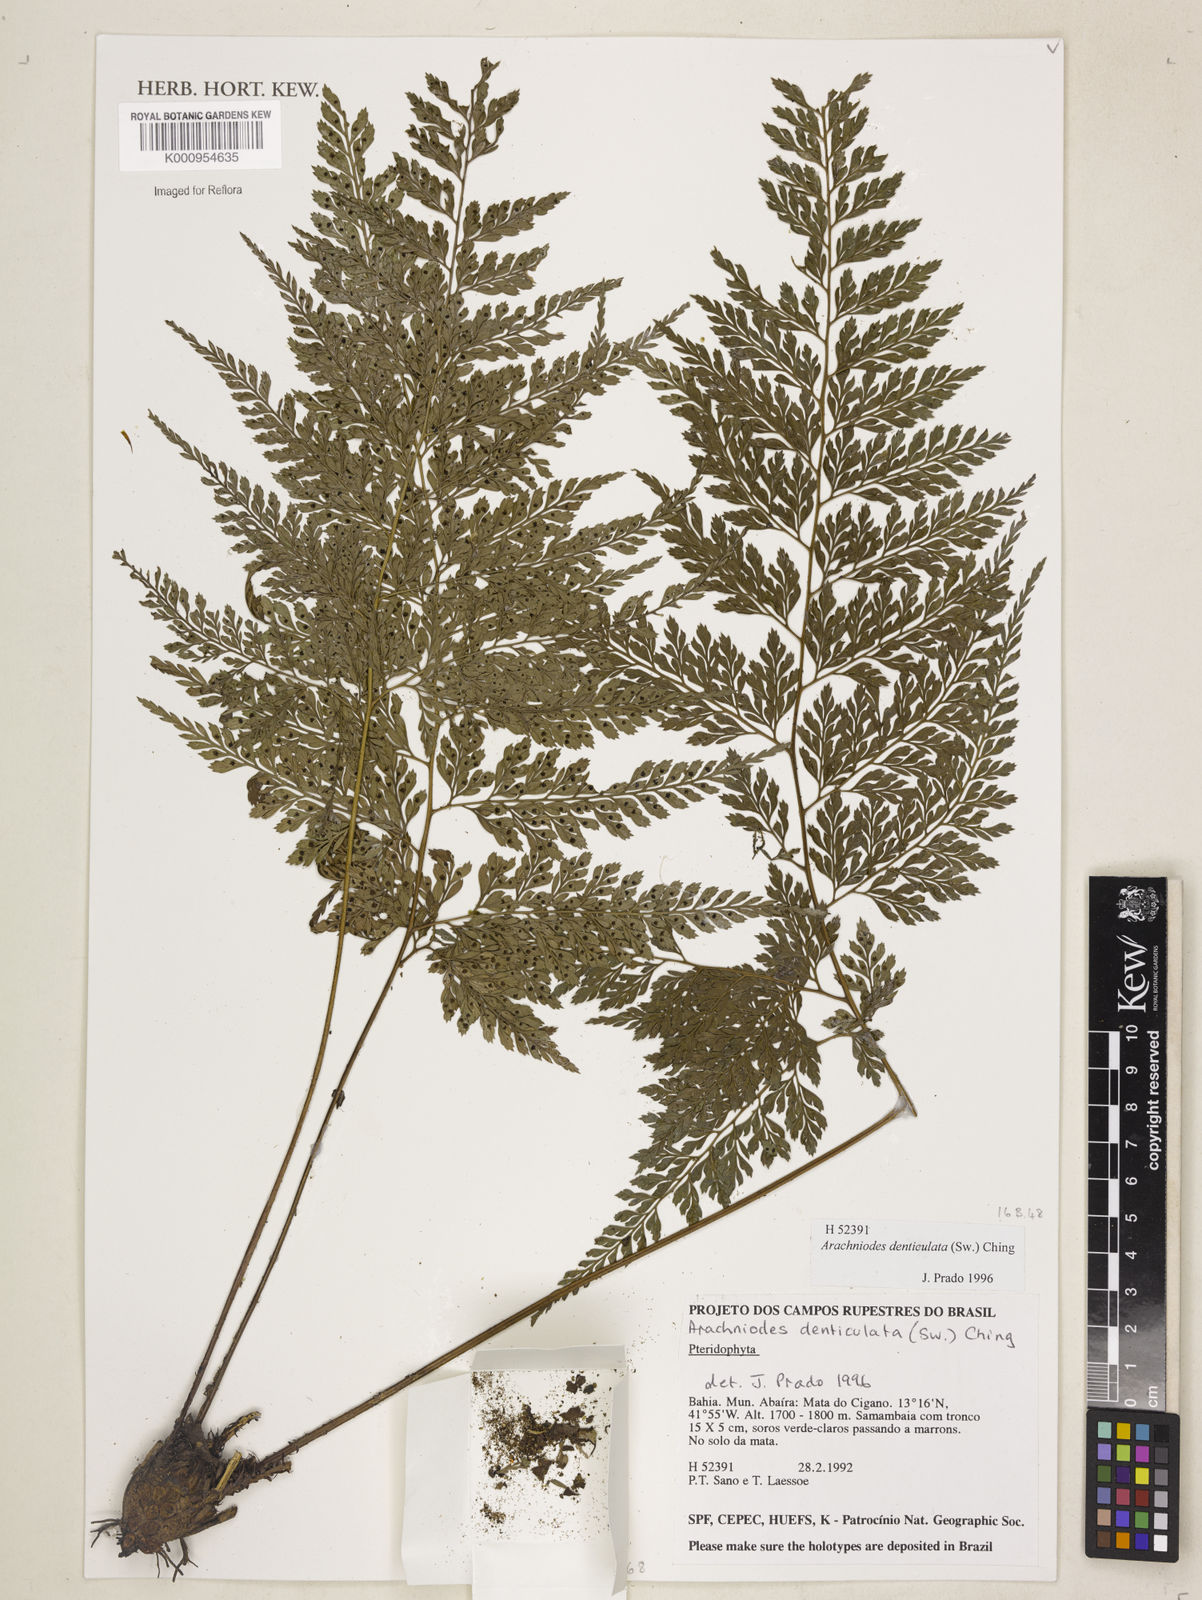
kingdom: Plantae
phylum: Tracheophyta
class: Polypodiopsida
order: Polypodiales
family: Dryopteridaceae
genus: Arachniodes
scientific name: Arachniodes denticulata
